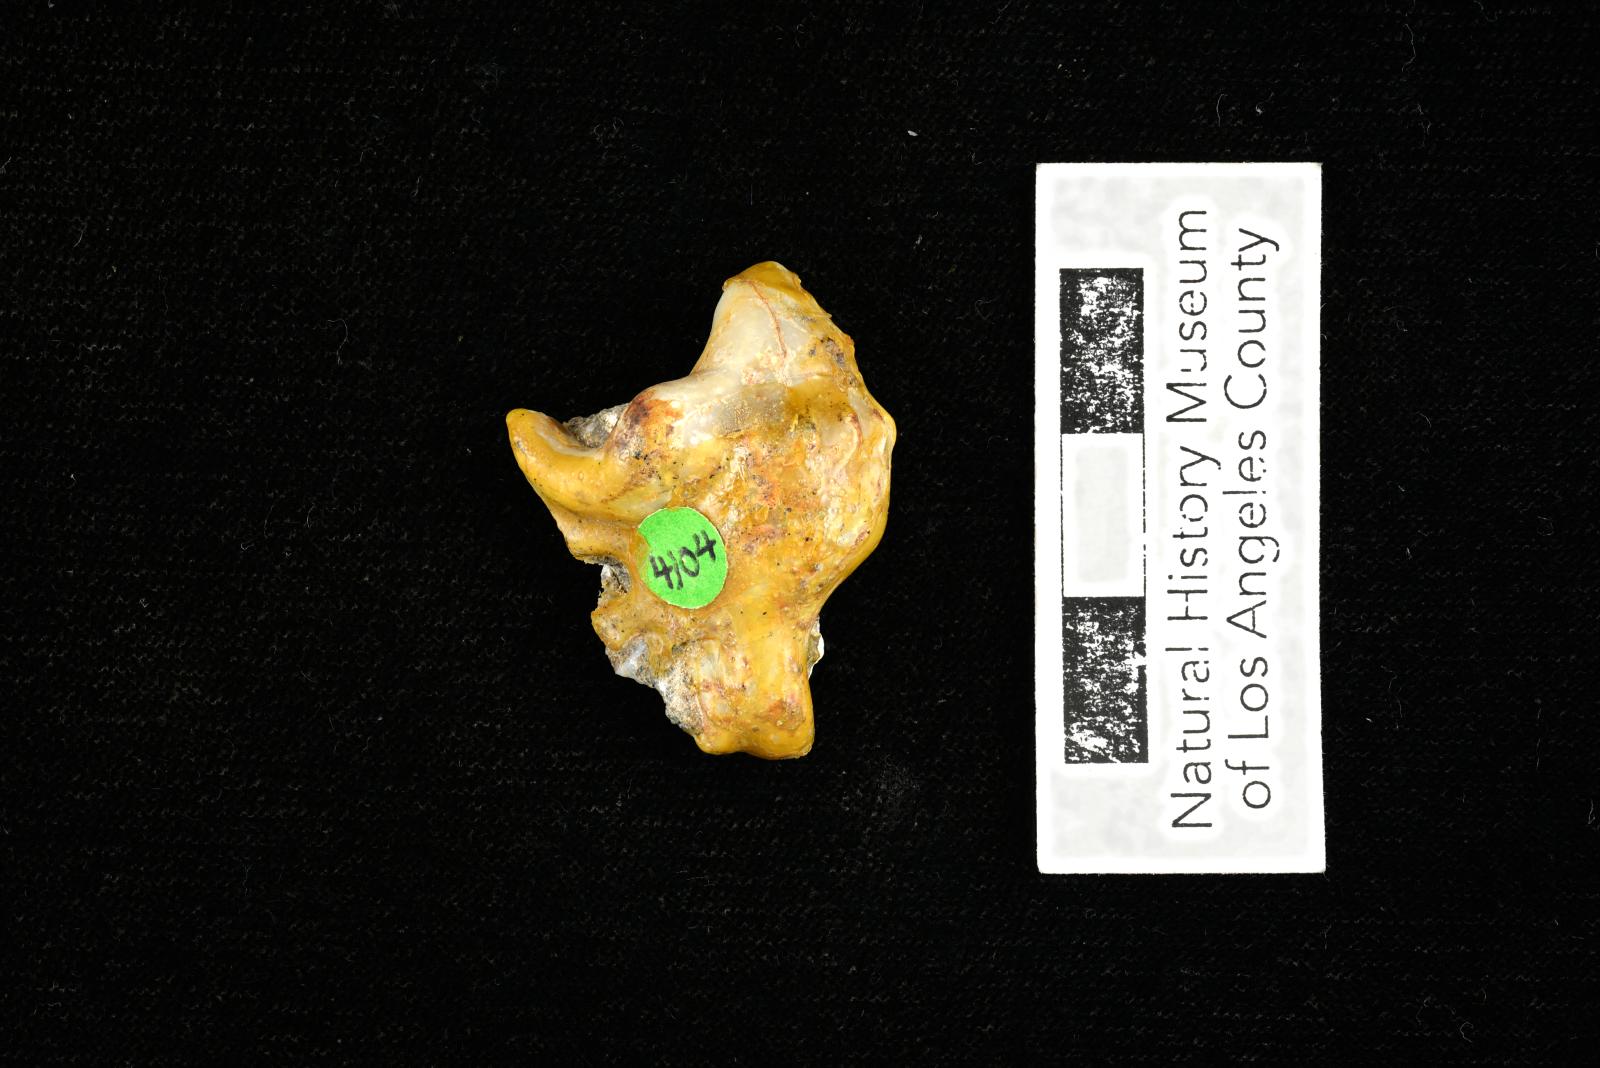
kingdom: Animalia
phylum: Mollusca
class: Gastropoda
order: Littorinimorpha
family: Aporrhaidae
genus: Pyktes
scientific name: Pyktes aspris
